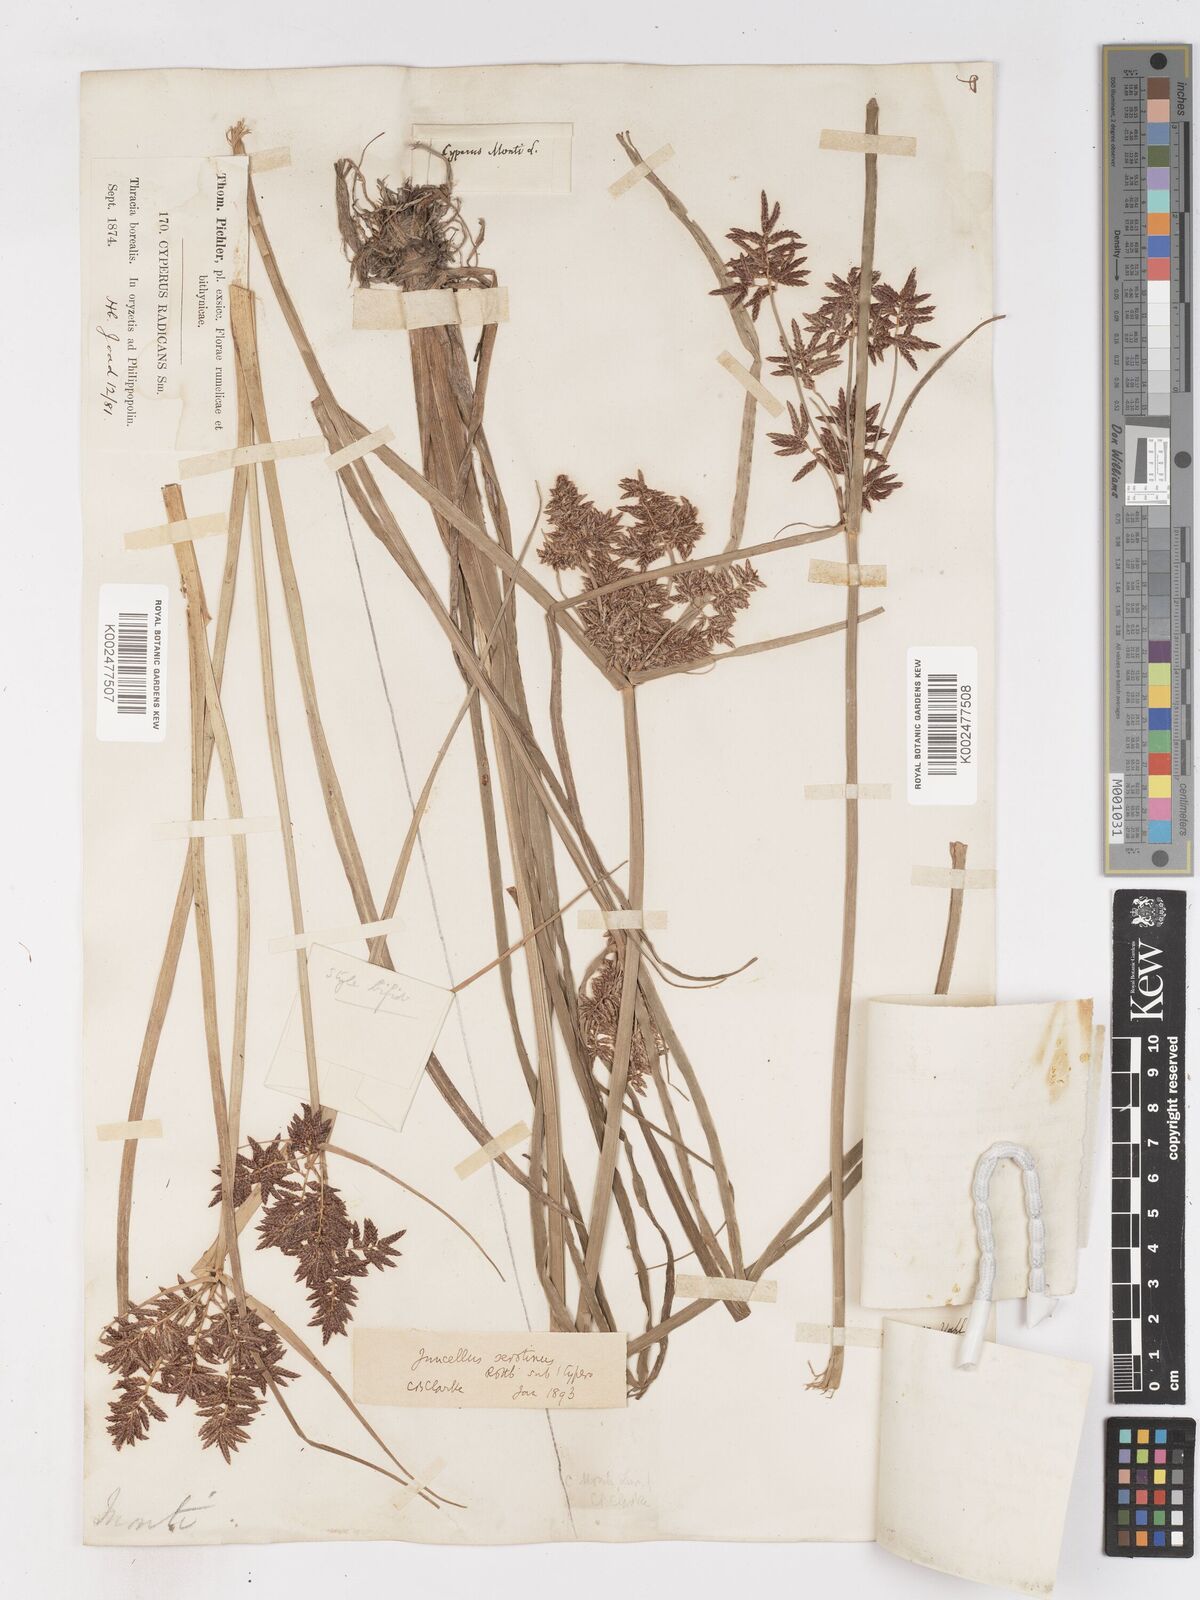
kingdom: Plantae
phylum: Tracheophyta
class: Liliopsida
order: Poales
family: Cyperaceae
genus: Cyperus
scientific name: Cyperus serotinus
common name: Tidalmarsh flatsedge
